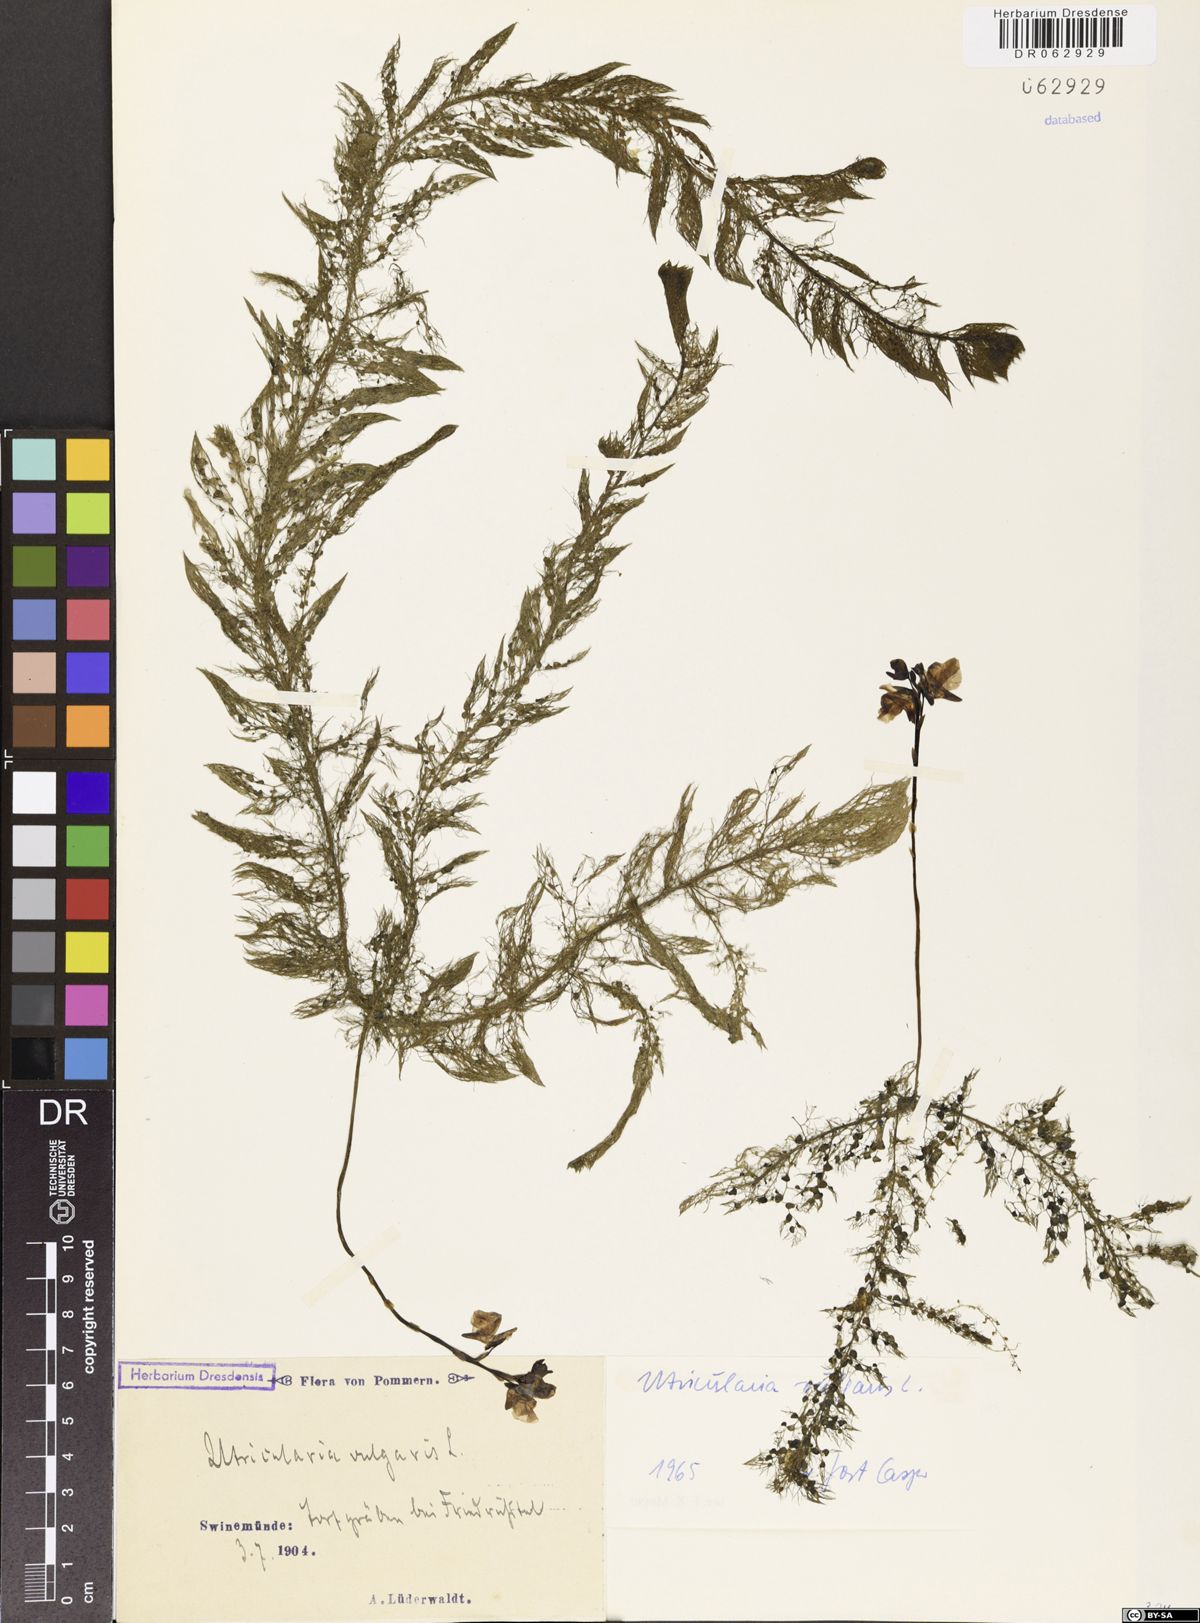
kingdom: Plantae
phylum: Tracheophyta
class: Magnoliopsida
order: Lamiales
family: Lentibulariaceae
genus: Utricularia
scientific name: Utricularia vulgaris
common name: Greater bladderwort
